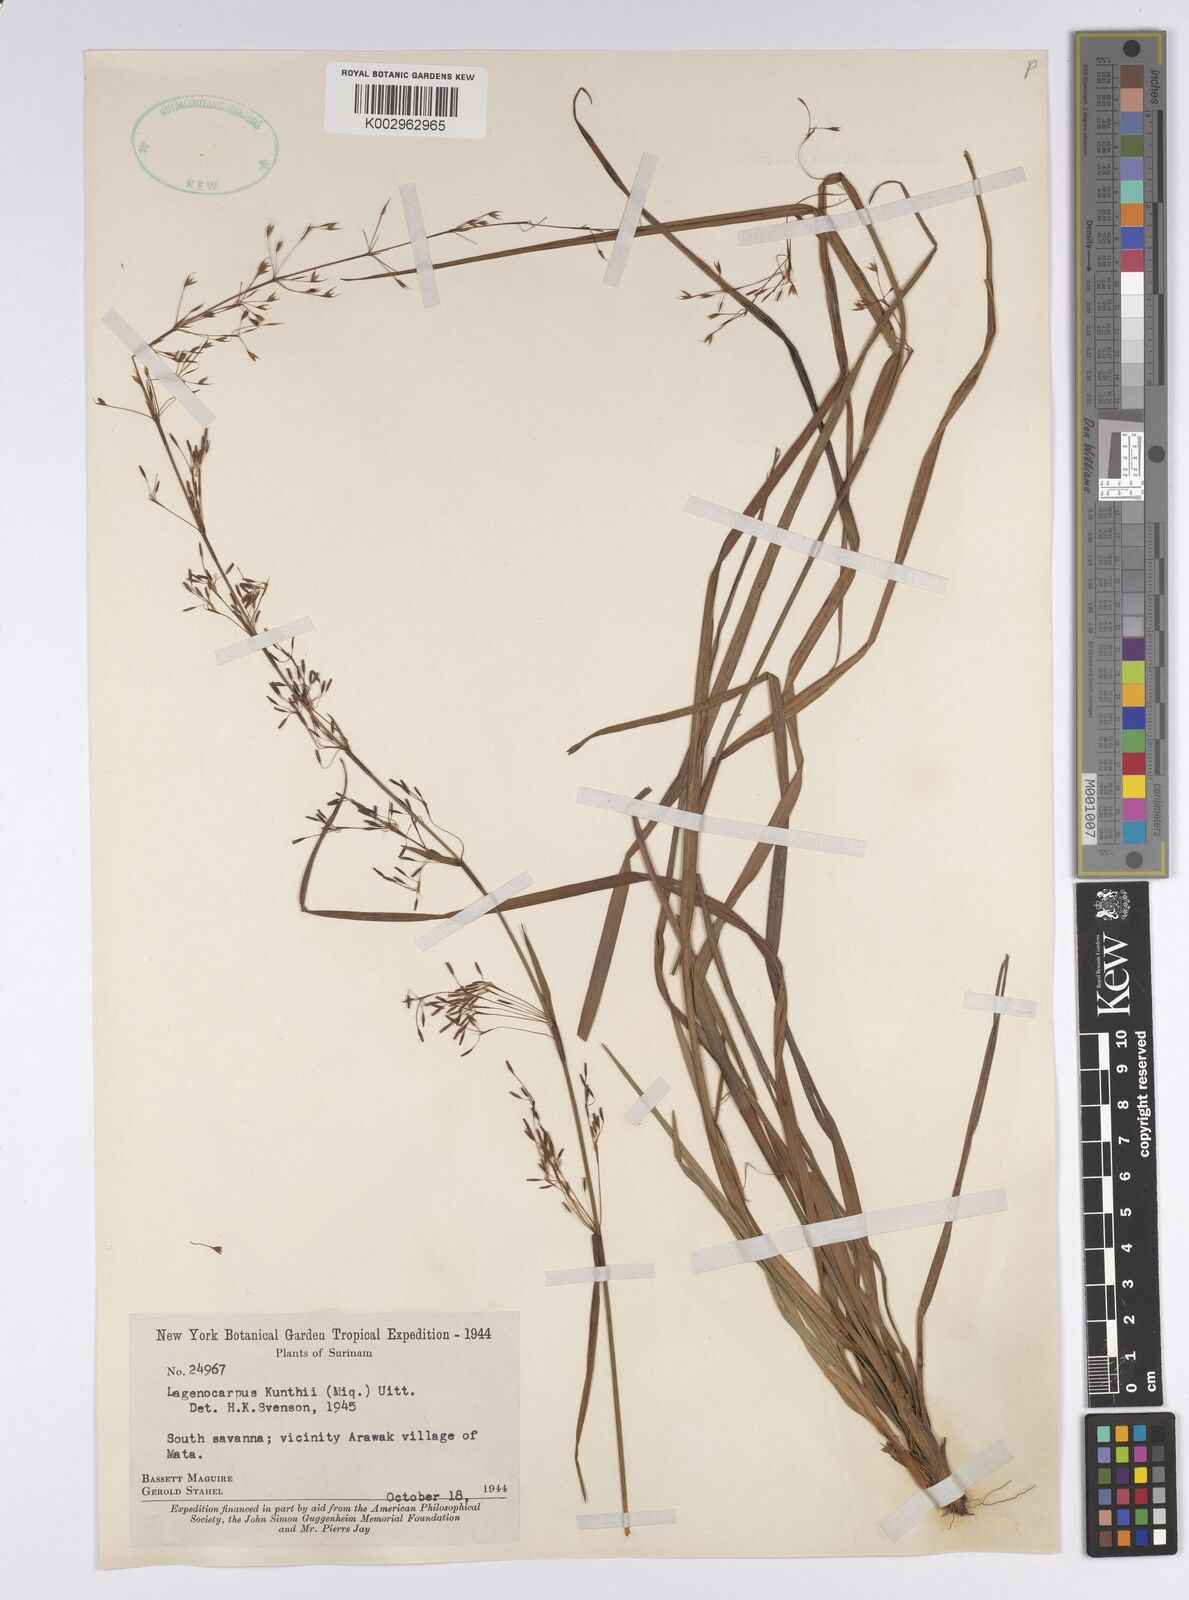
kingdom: Plantae
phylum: Tracheophyta
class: Liliopsida
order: Poales
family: Cyperaceae
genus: Cryptangium
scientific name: Cryptangium verticillatum
